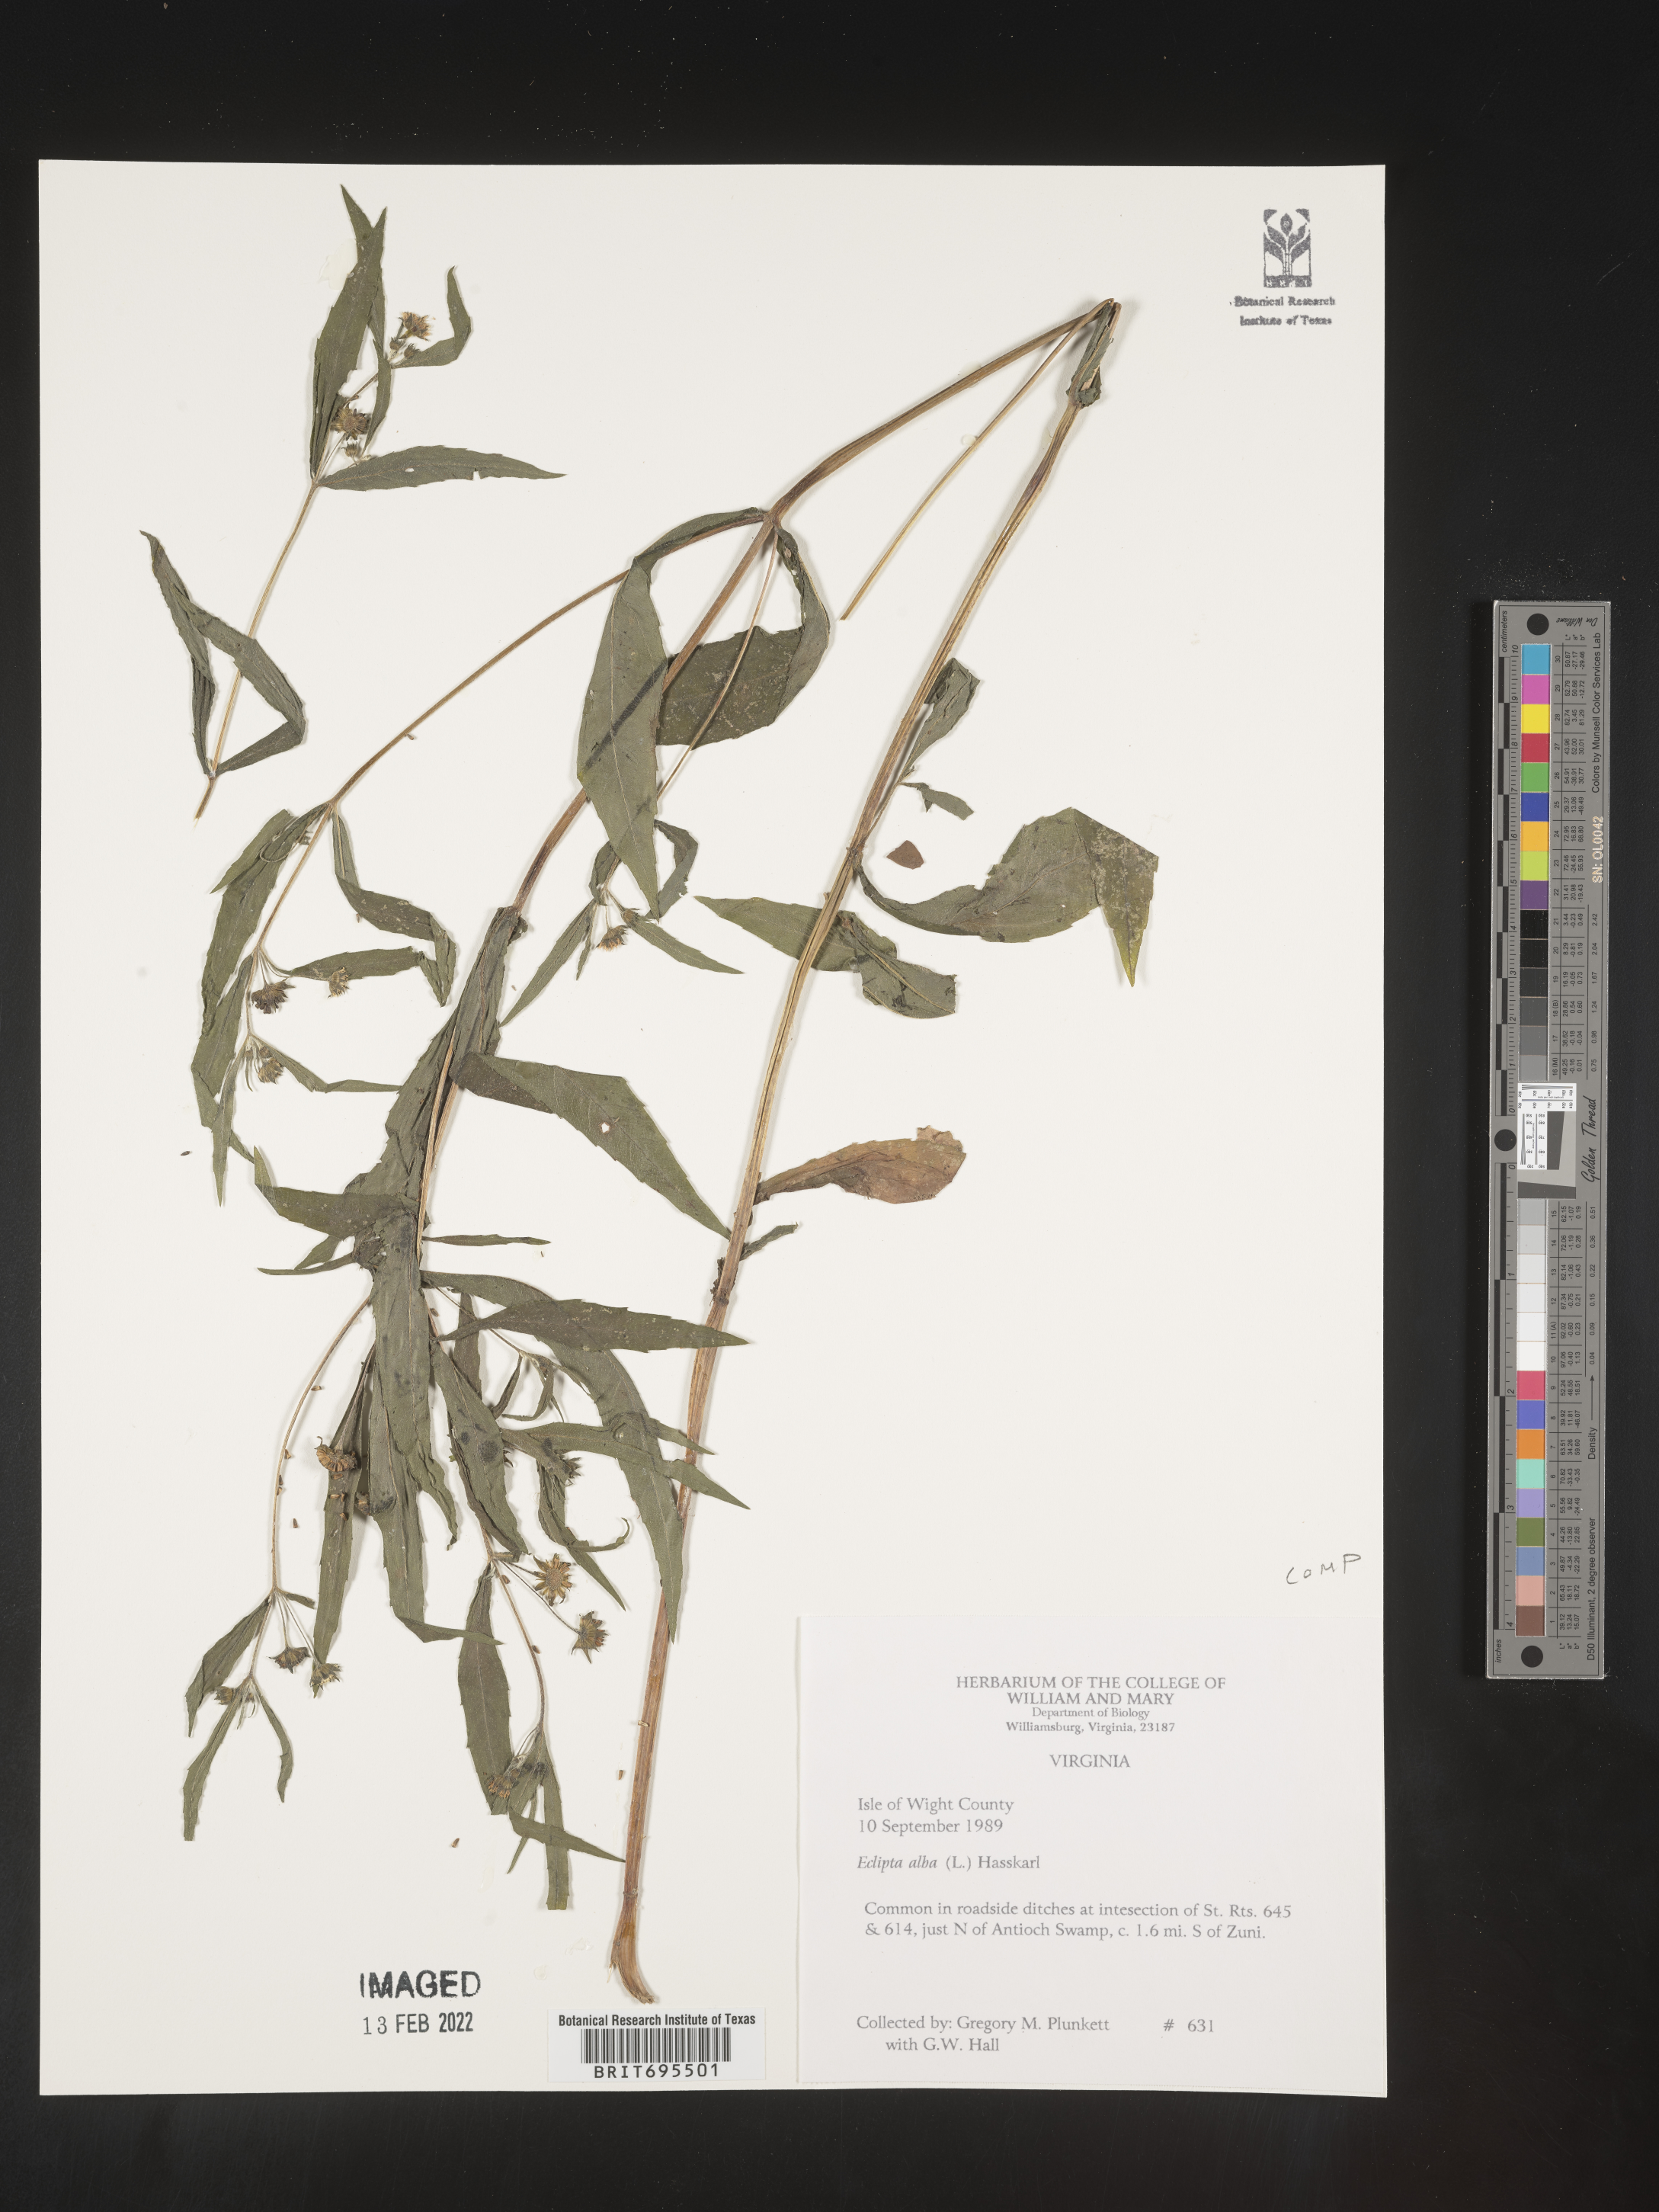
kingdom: Plantae
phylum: Tracheophyta
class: Magnoliopsida
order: Asterales
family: Asteraceae
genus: Eclipta
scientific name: Eclipta alba
